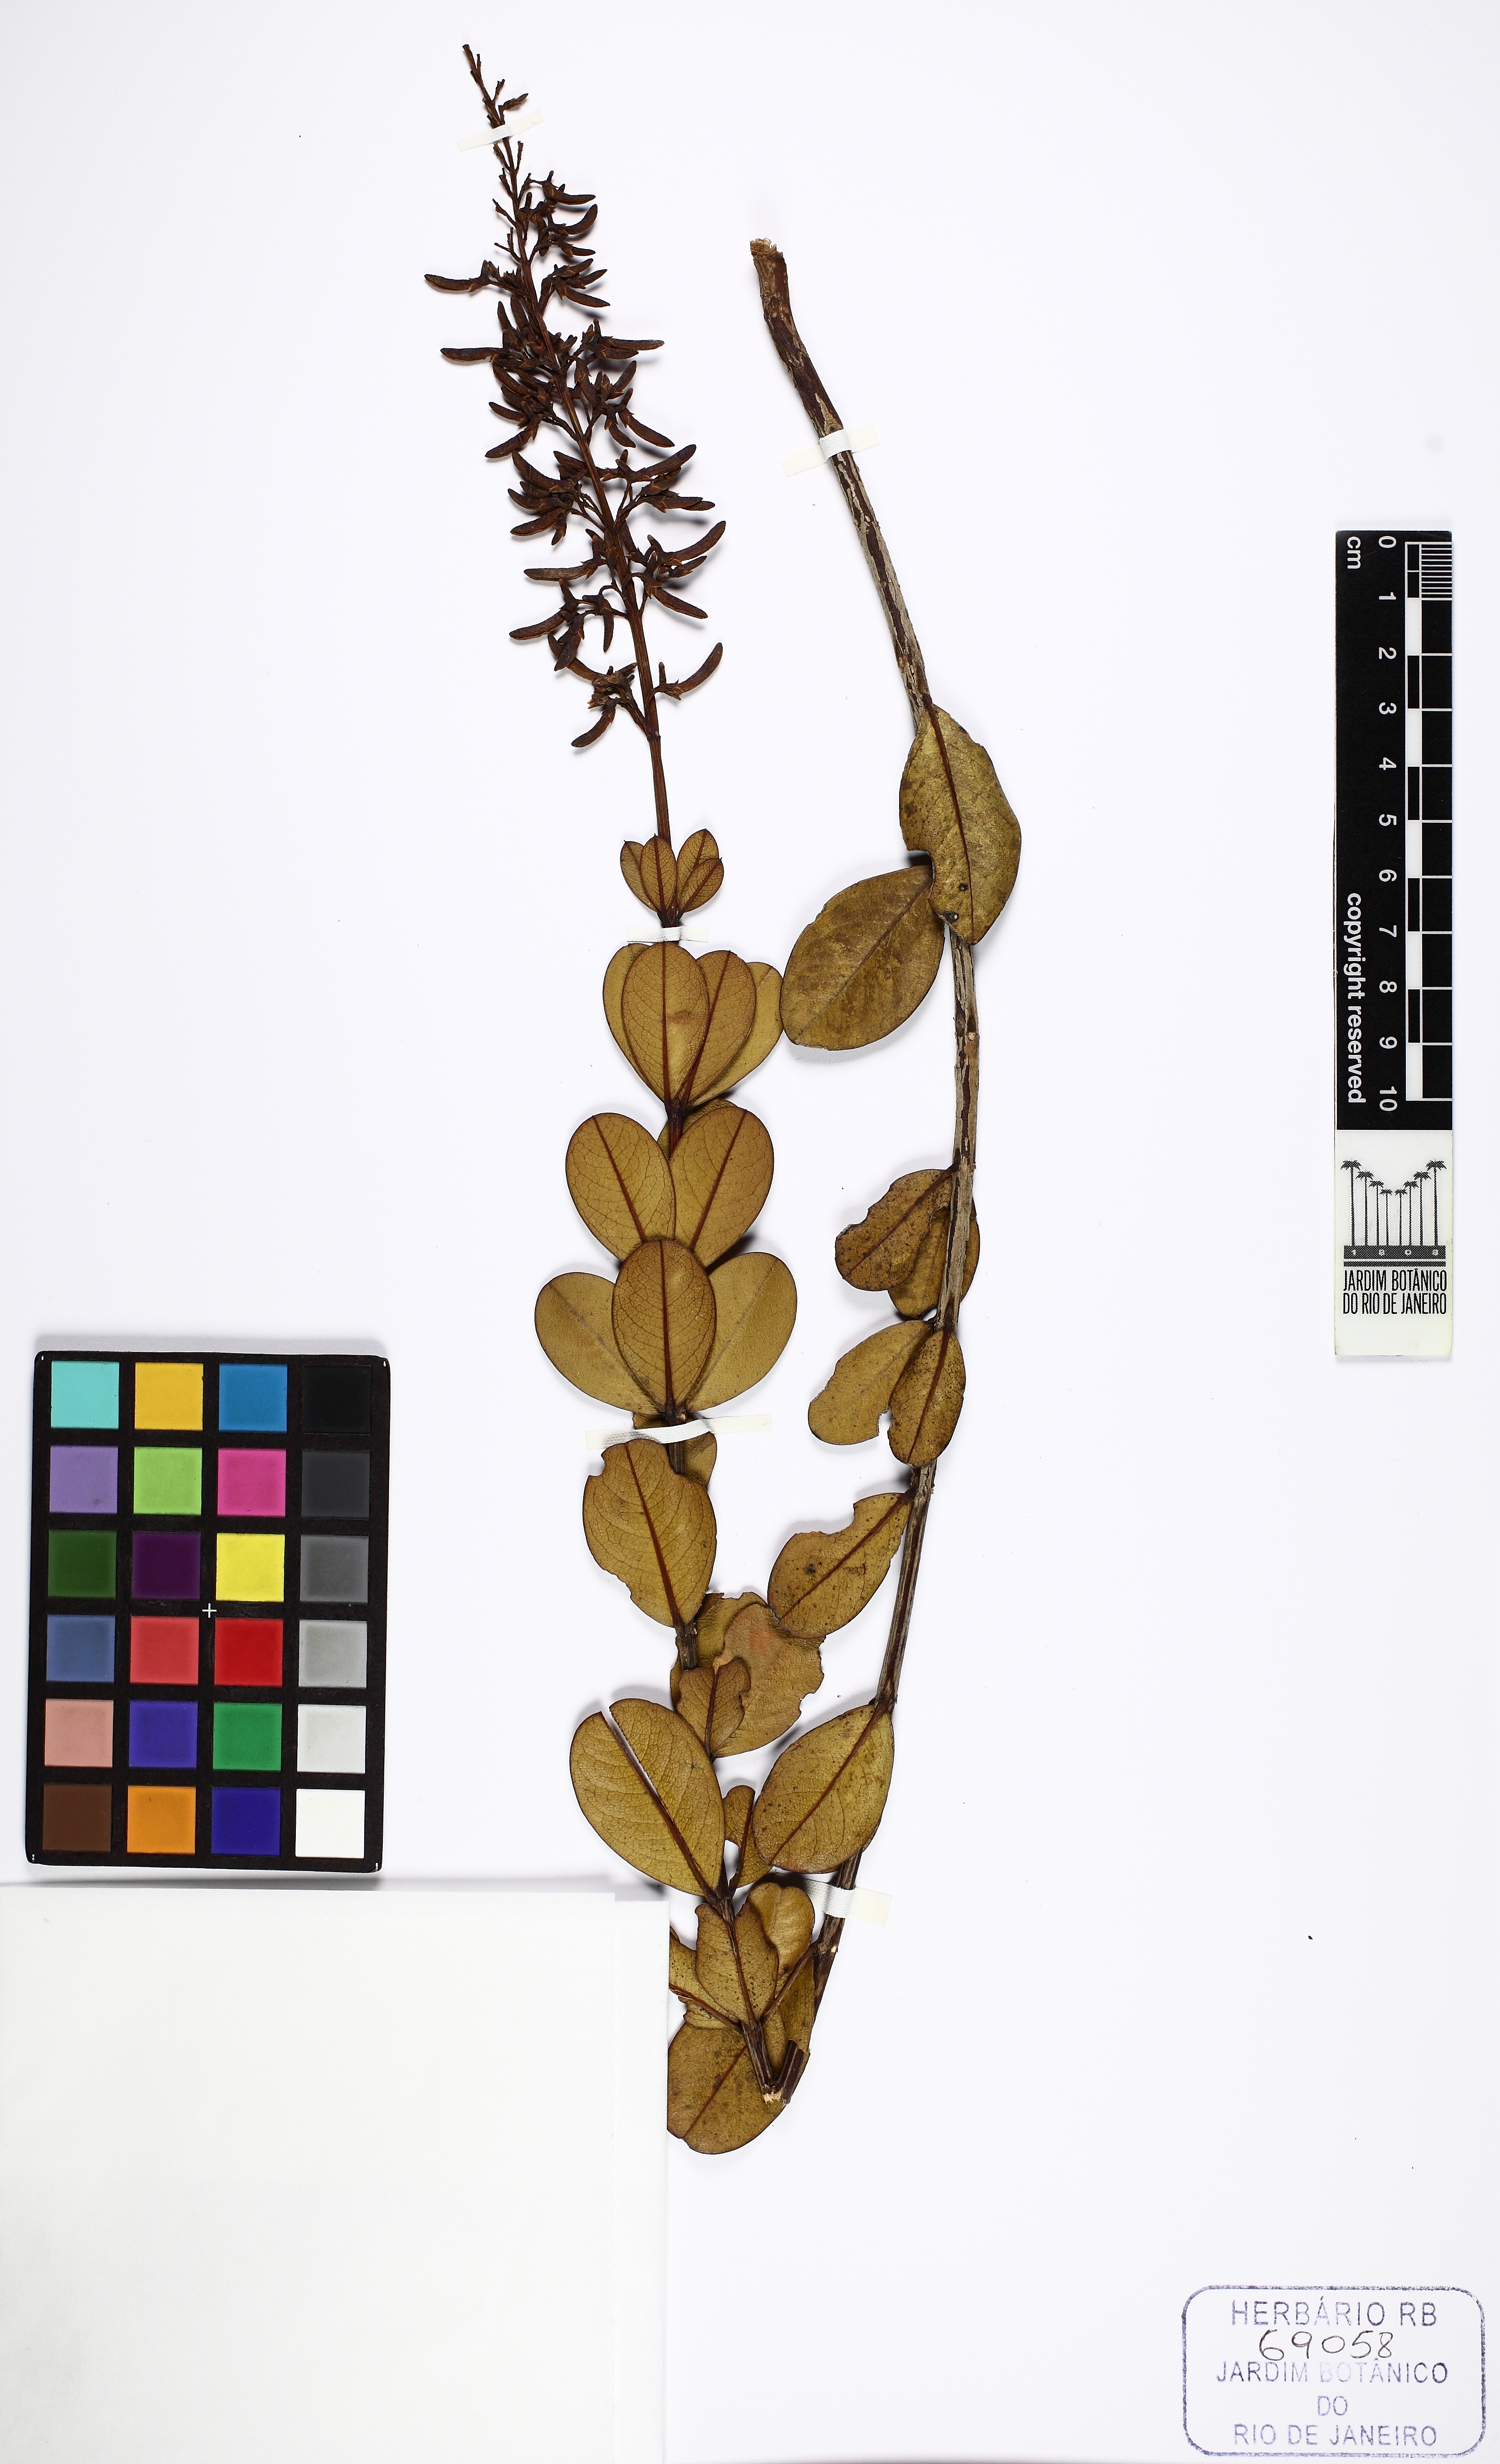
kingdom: Plantae
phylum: Tracheophyta
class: Magnoliopsida
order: Myrtales
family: Vochysiaceae
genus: Vochysia
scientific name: Vochysia pygmaea
